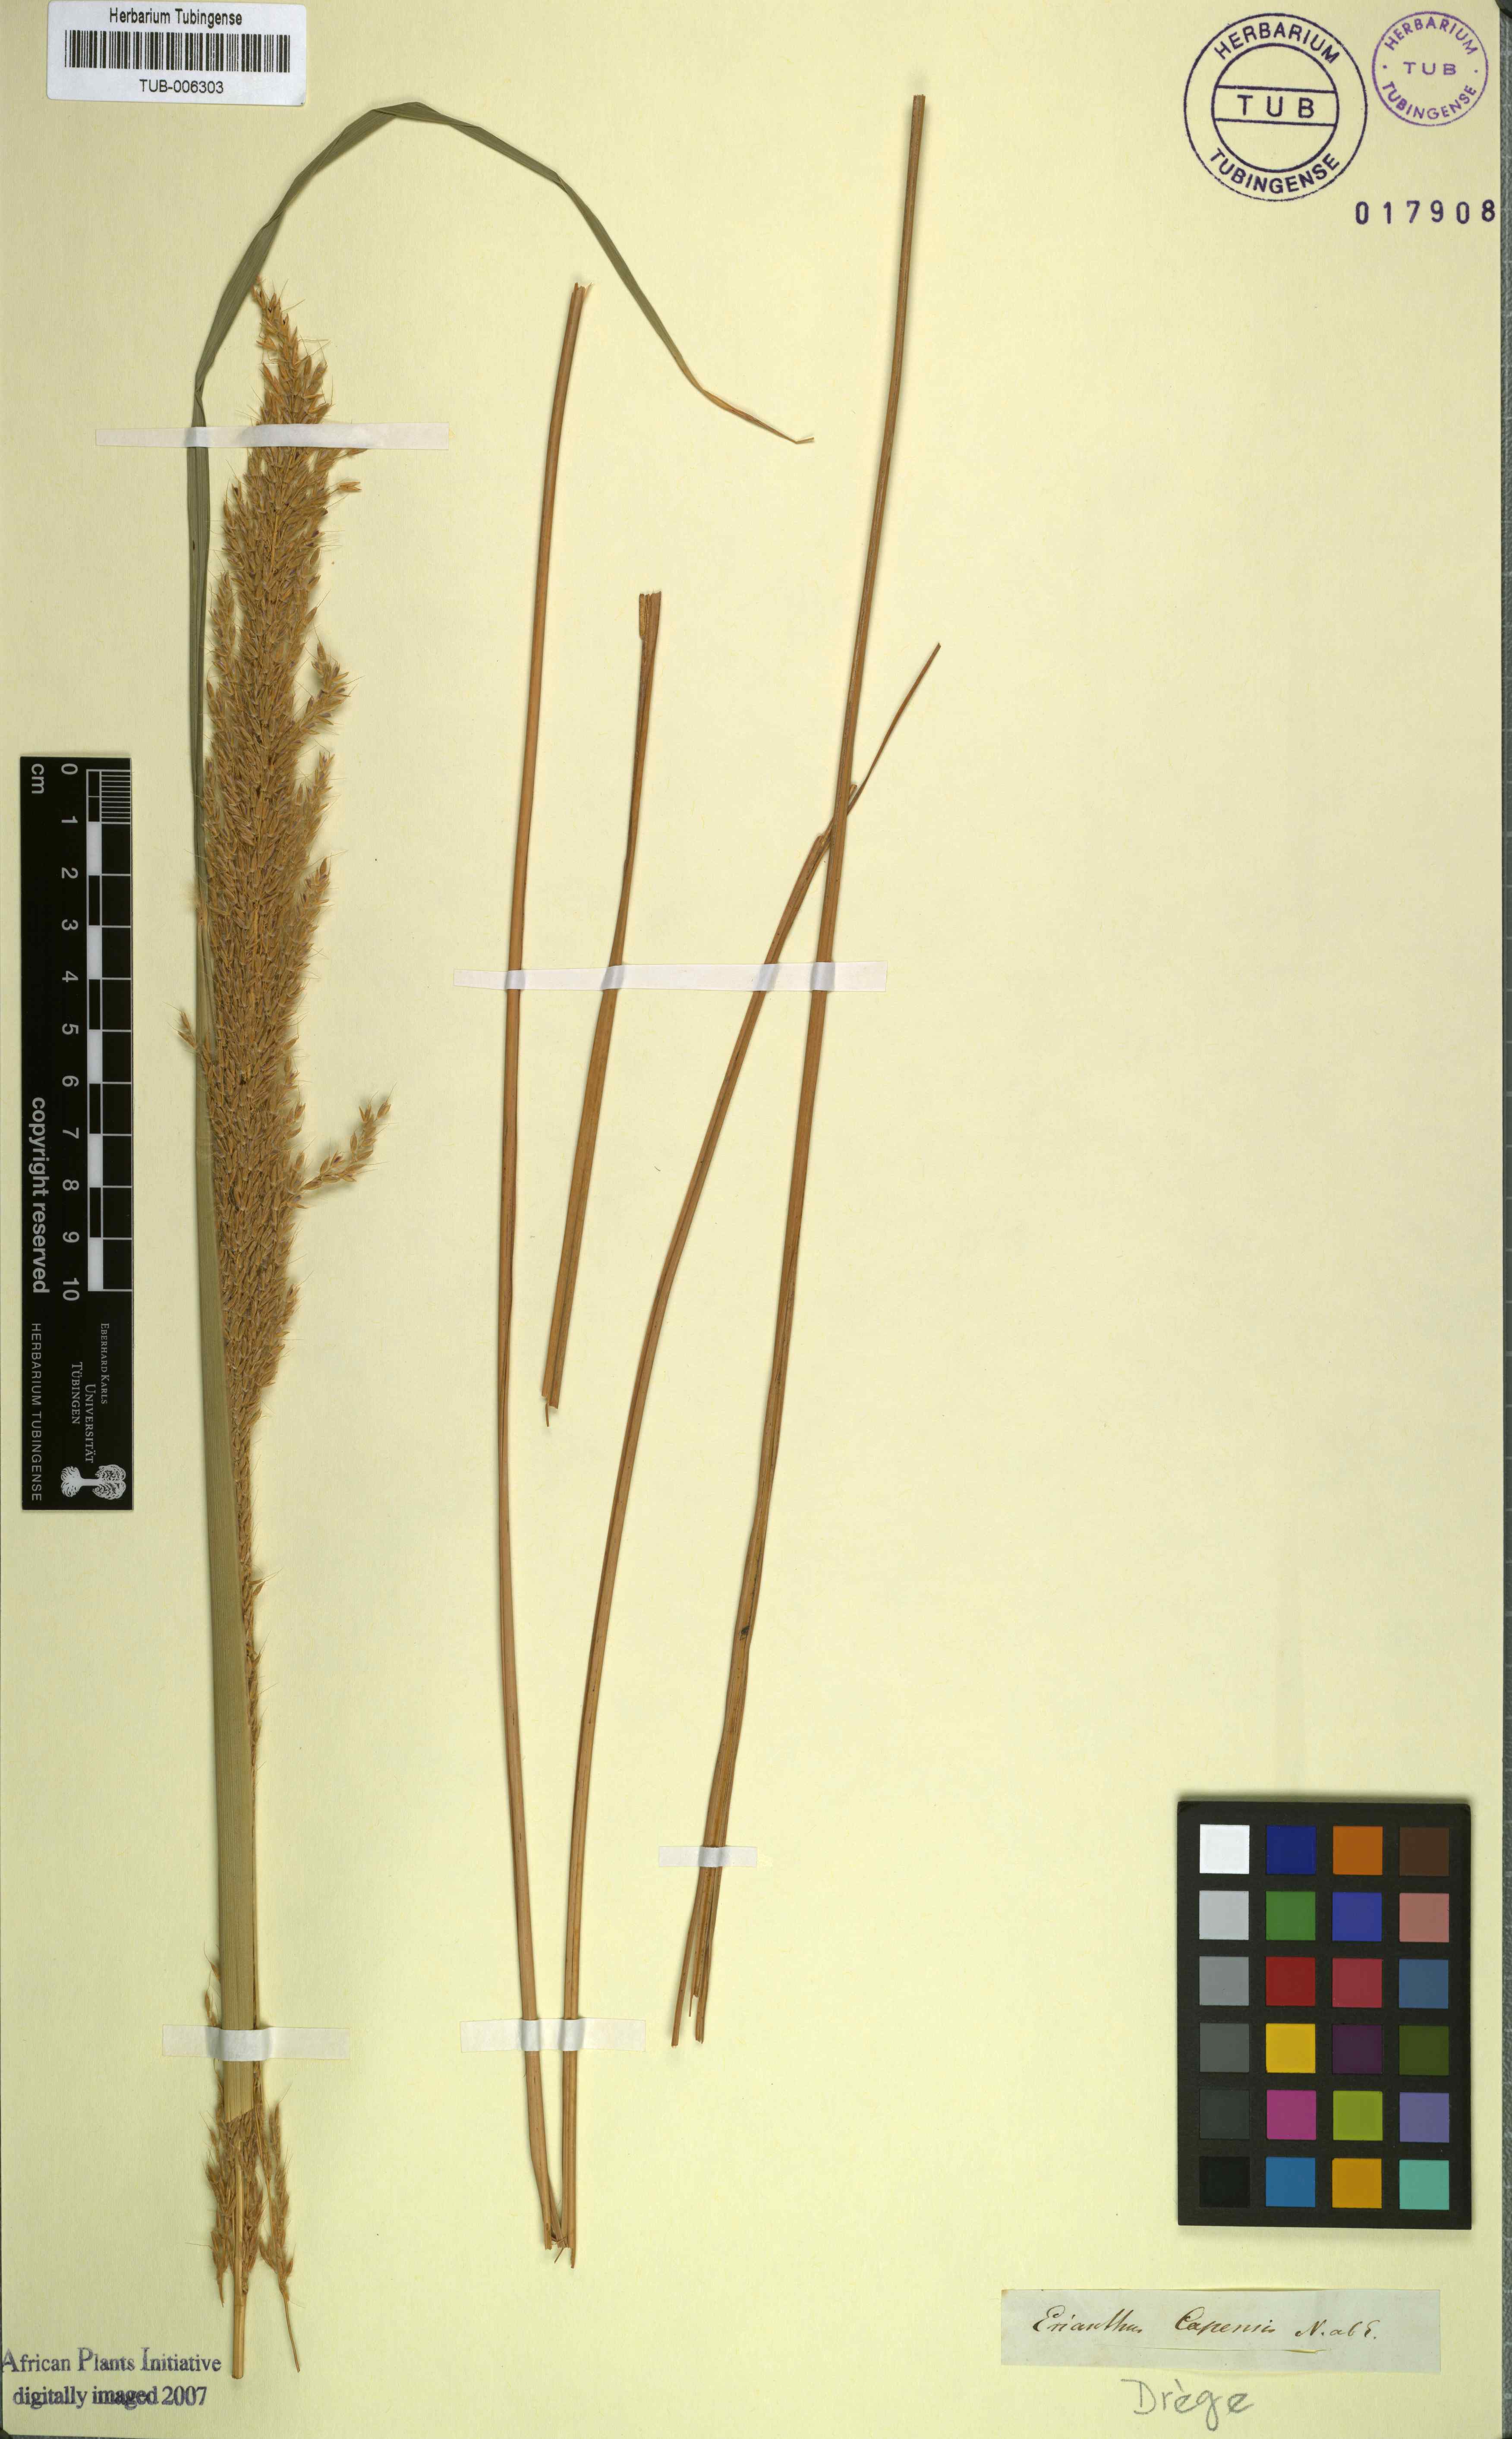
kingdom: Plantae
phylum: Tracheophyta
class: Liliopsida
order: Poales
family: Poaceae
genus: Miscanthus
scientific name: Miscanthus ecklonii
